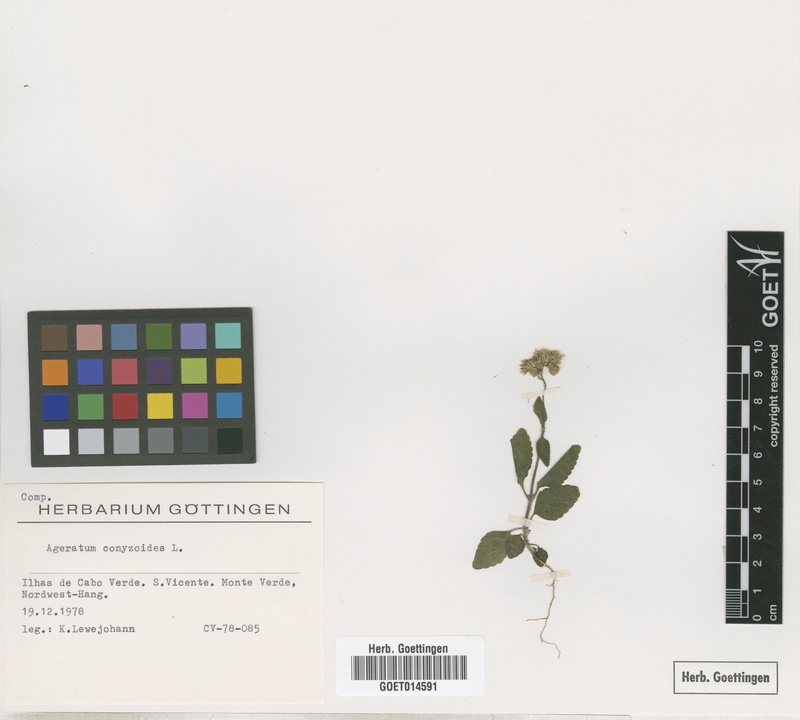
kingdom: Plantae
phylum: Tracheophyta
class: Magnoliopsida
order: Asterales
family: Asteraceae
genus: Ageratum
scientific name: Ageratum conyzoides
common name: Tropical whiteweed
